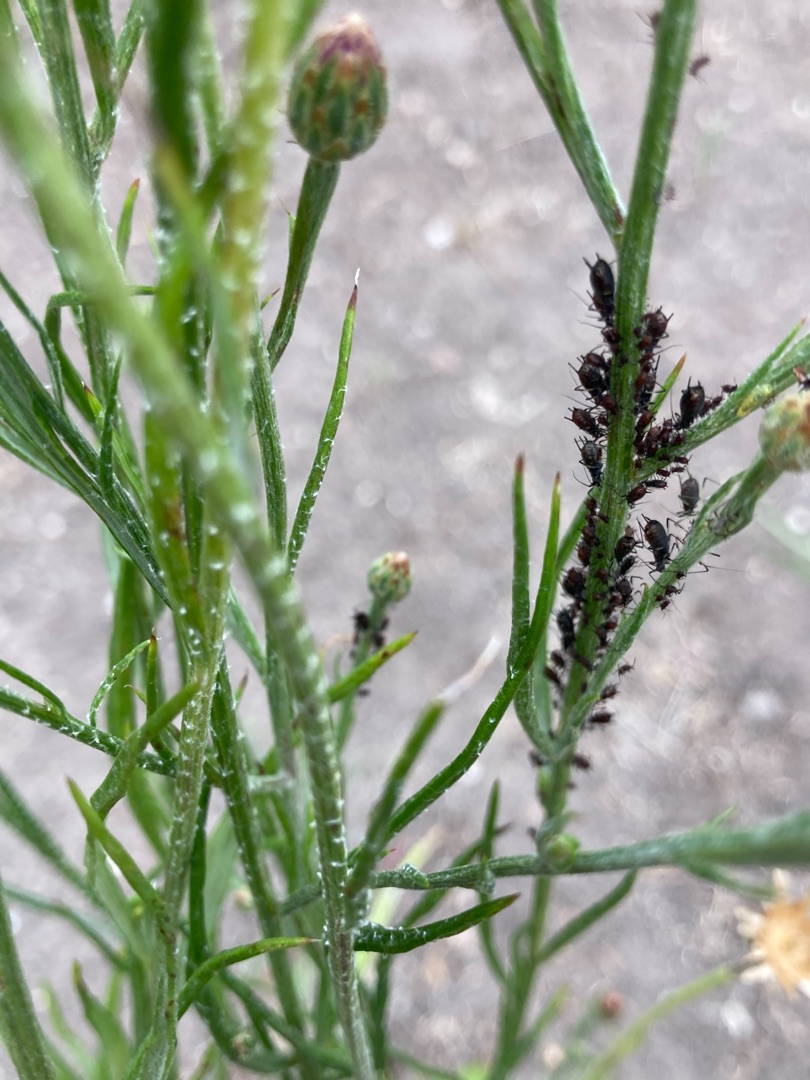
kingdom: Animalia
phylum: Arthropoda
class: Insecta
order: Hemiptera
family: Aphididae
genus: Uroleucon
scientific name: Uroleucon jaceae
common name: Brun knopurtbladlus
